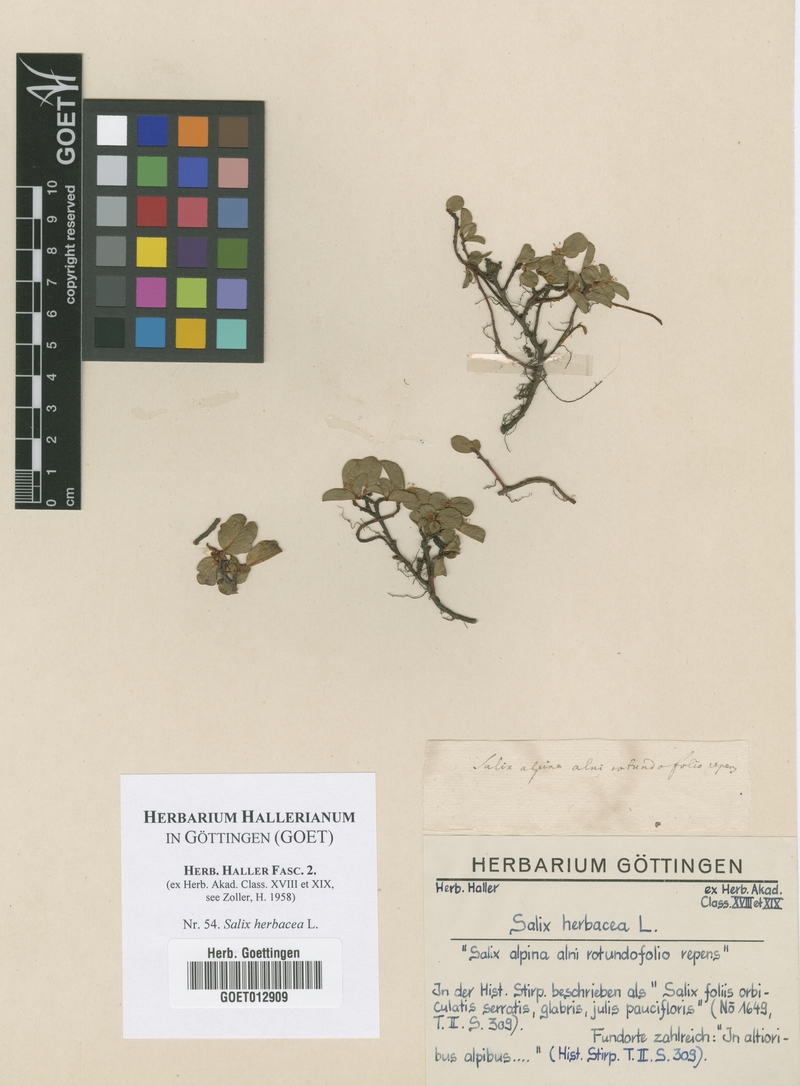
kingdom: Plantae
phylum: Tracheophyta
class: Magnoliopsida
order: Malpighiales
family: Salicaceae
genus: Salix
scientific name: Salix herbacea
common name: Dwarf willow
